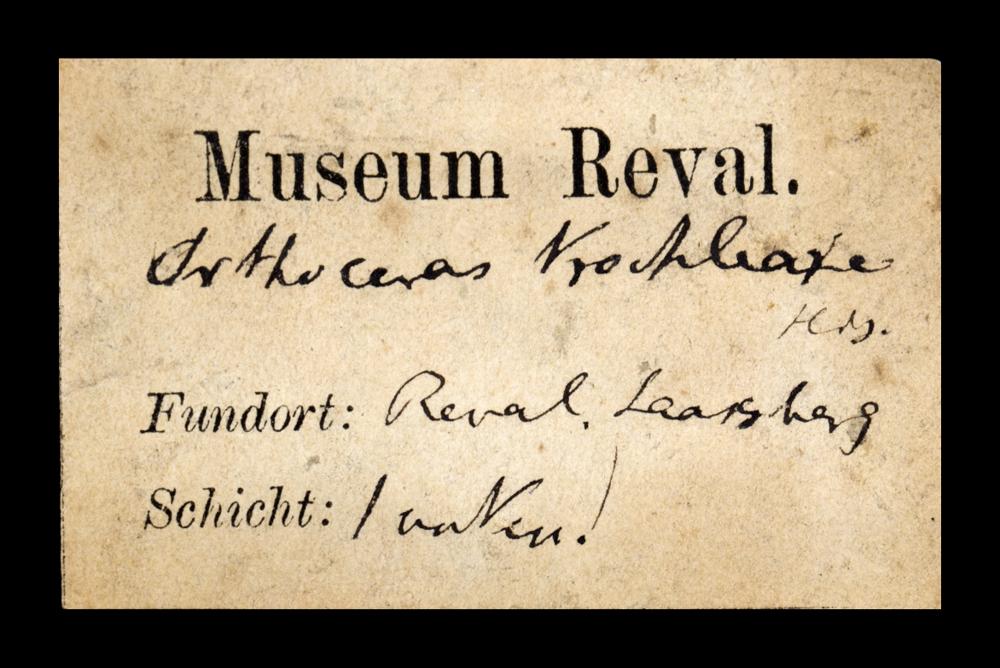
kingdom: Animalia
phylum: Mollusca
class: Cephalopoda
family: Endoceratidae
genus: Cyclendoceras
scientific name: Cyclendoceras
